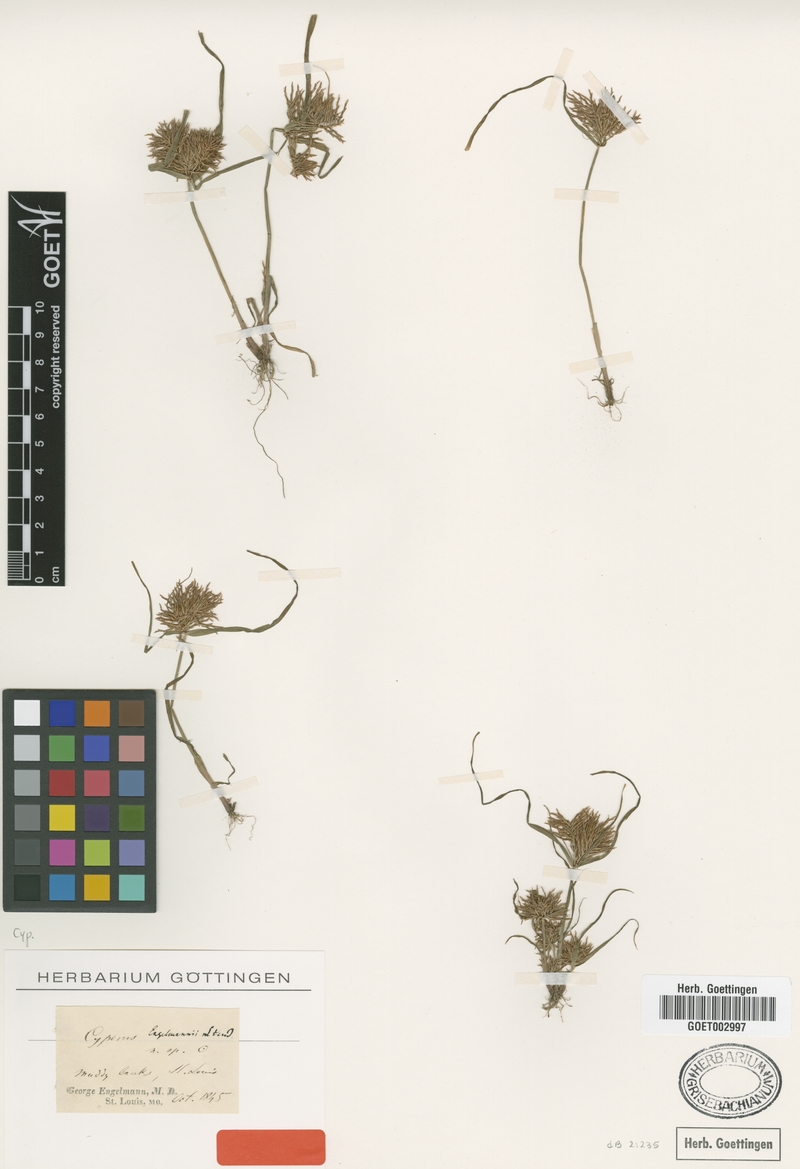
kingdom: Plantae
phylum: Tracheophyta
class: Liliopsida
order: Poales
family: Cyperaceae
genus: Cyperus
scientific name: Cyperus odoratus
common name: Fragrant flatsedge
